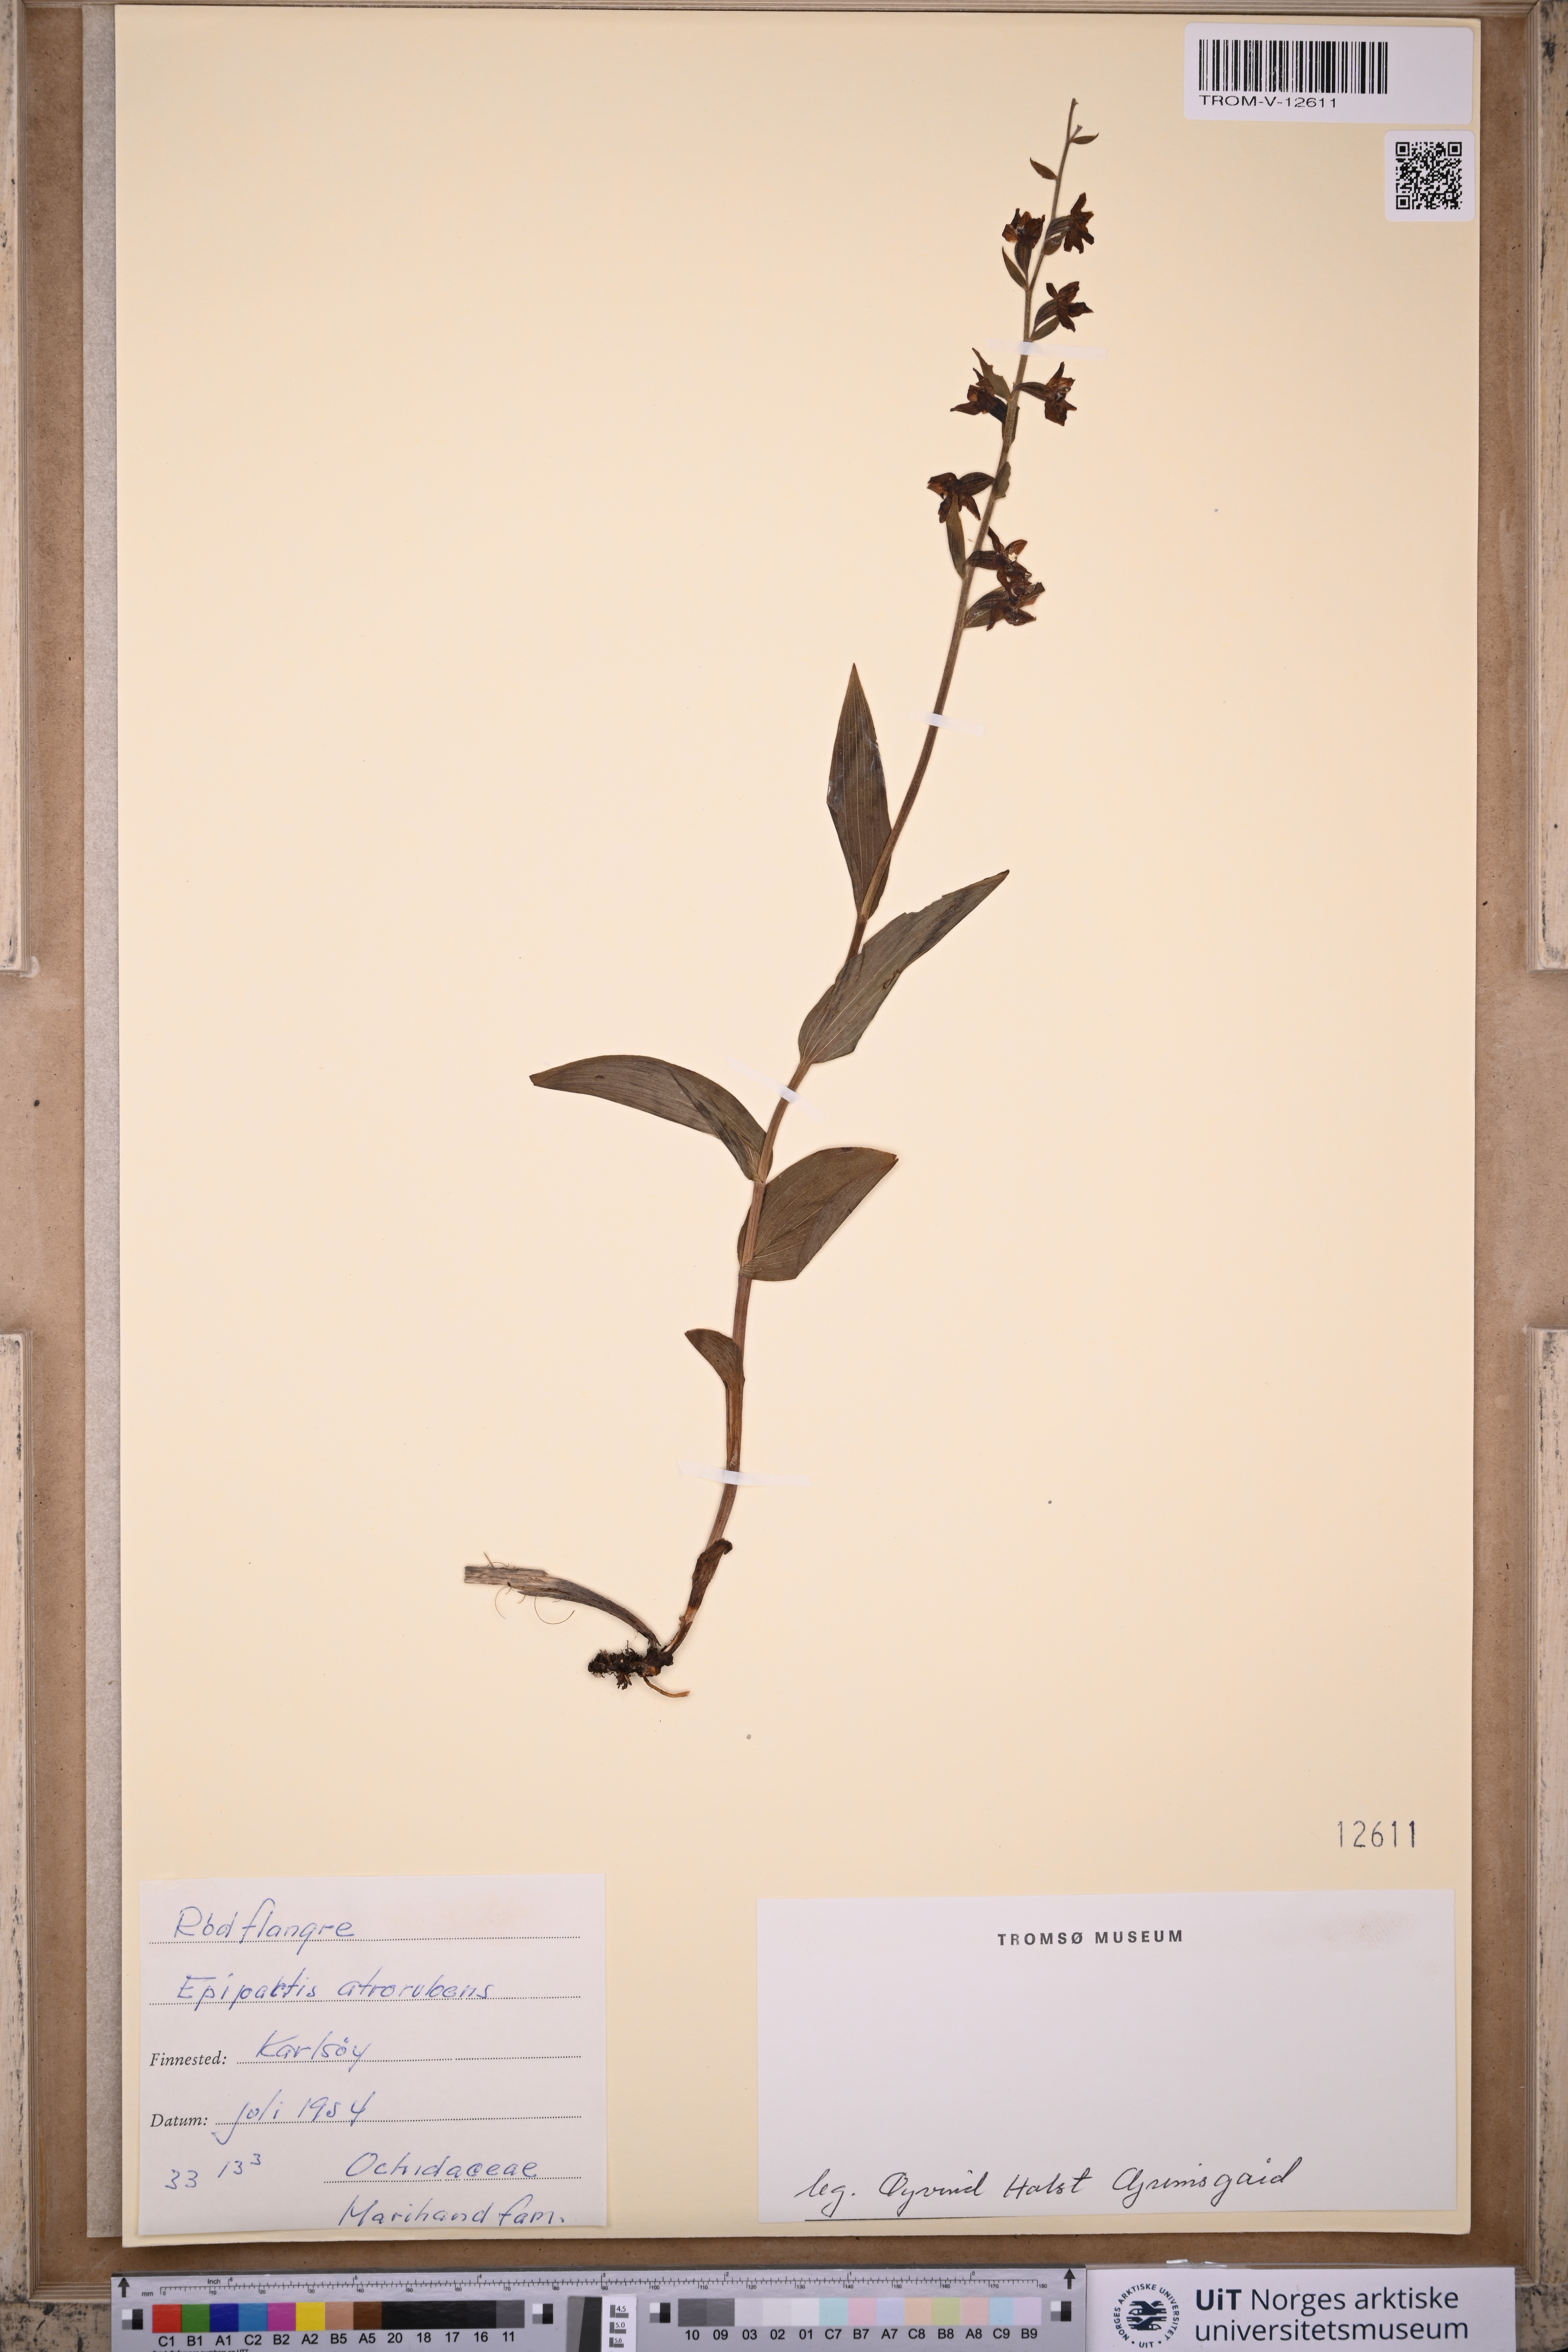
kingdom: Plantae
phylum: Tracheophyta
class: Liliopsida
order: Asparagales
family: Orchidaceae
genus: Epipactis
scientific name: Epipactis atrorubens
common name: Dark-red helleborine
